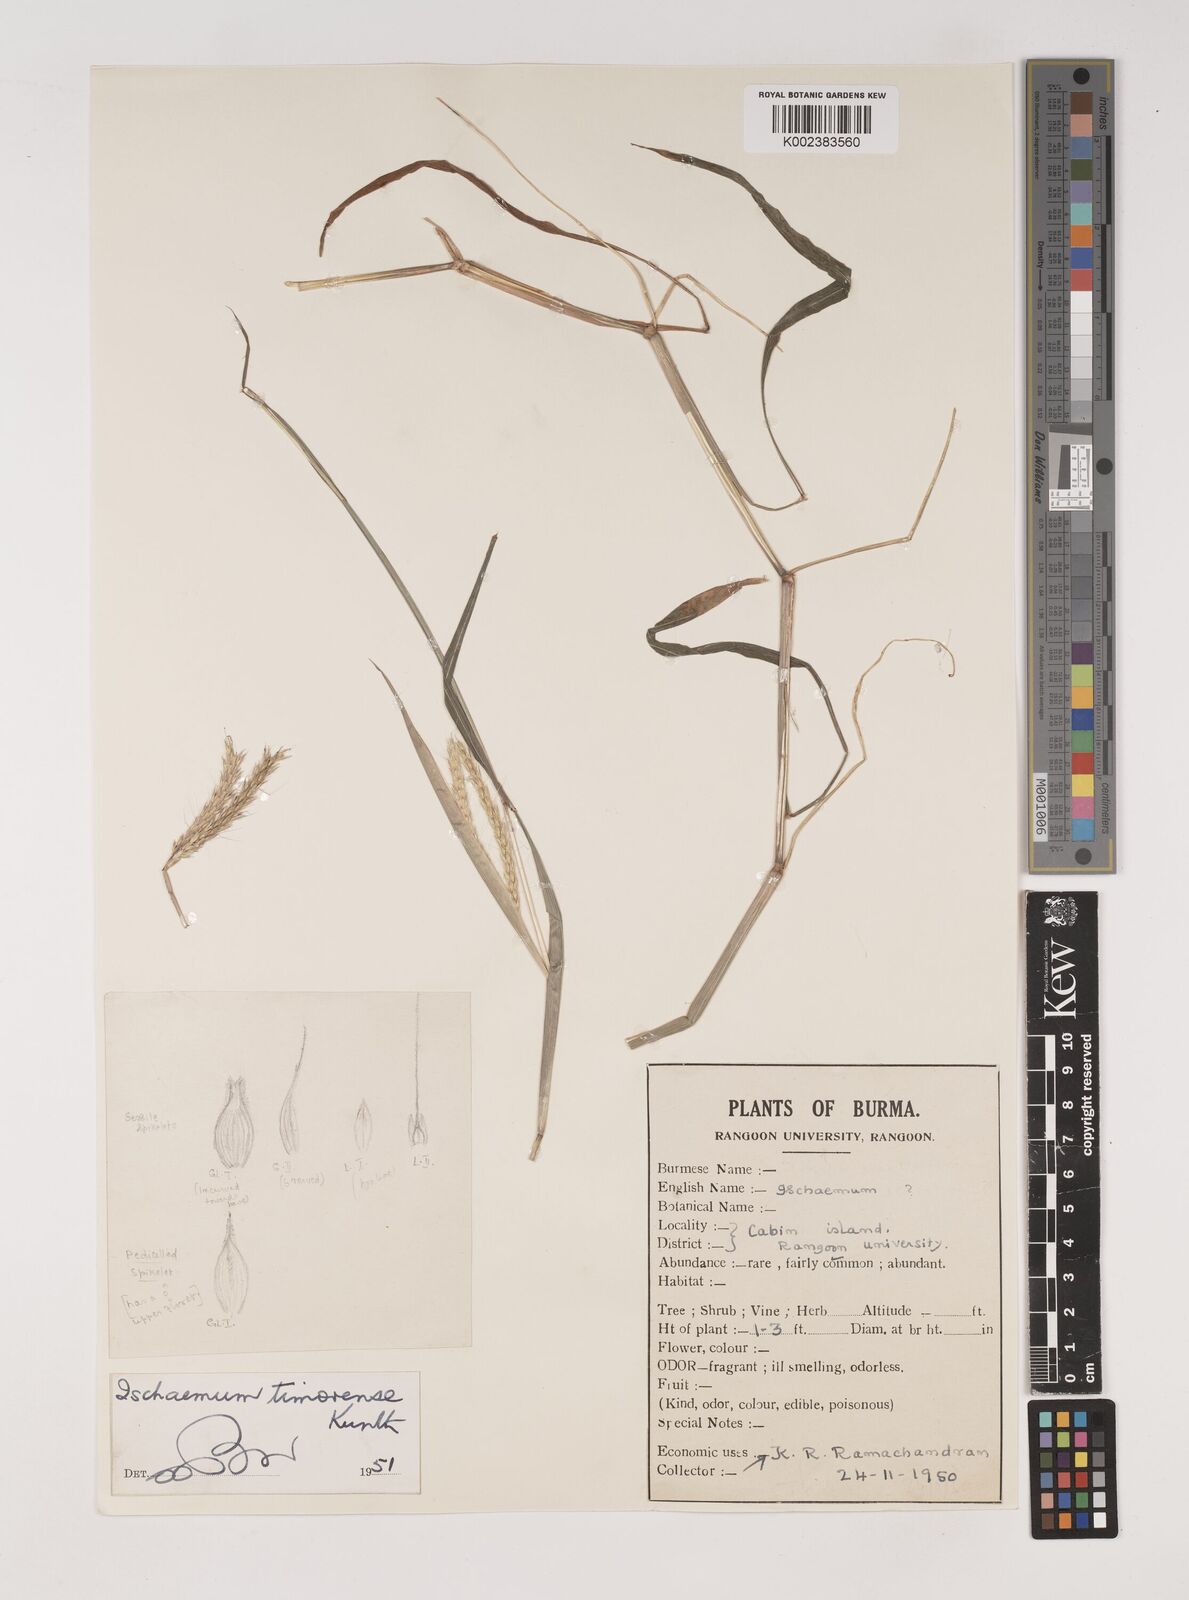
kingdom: Plantae
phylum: Tracheophyta
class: Liliopsida
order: Poales
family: Poaceae
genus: Ischaemum
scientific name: Ischaemum timorense
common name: Stalkleaf murainagrass
